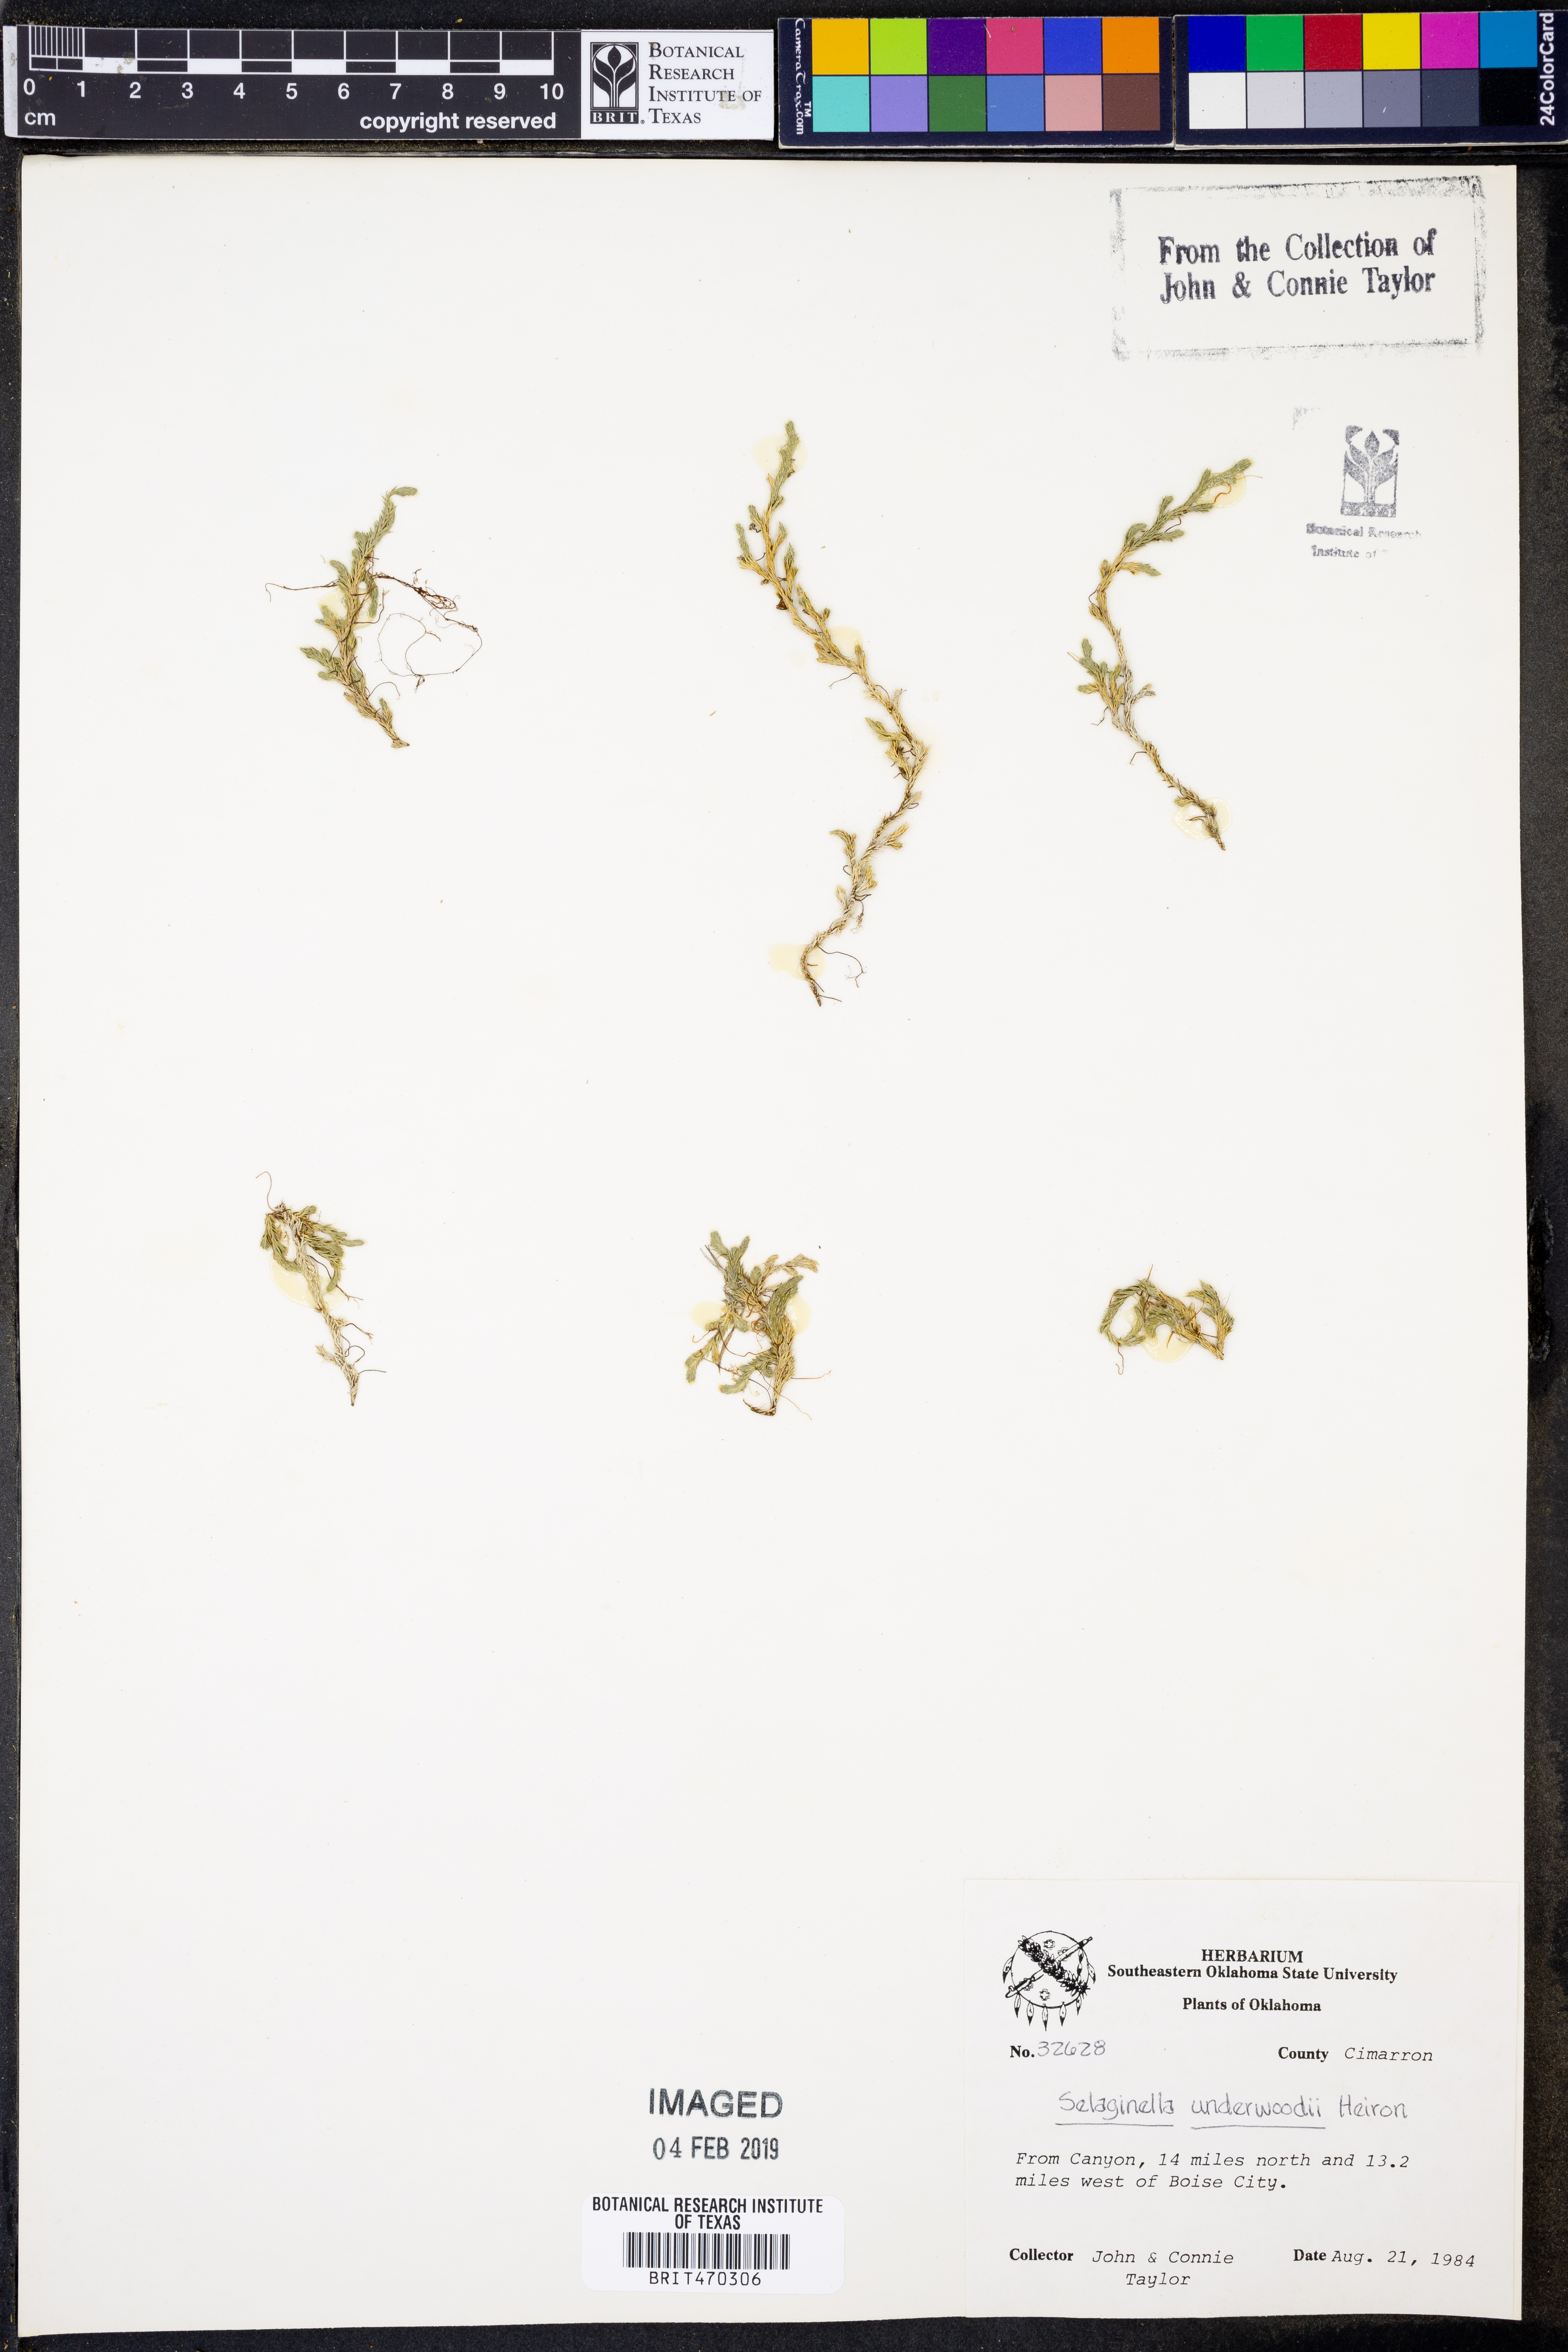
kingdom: Plantae
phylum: Tracheophyta
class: Lycopodiopsida
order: Selaginellales
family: Selaginellaceae
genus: Selaginella
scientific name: Selaginella underwoodii
